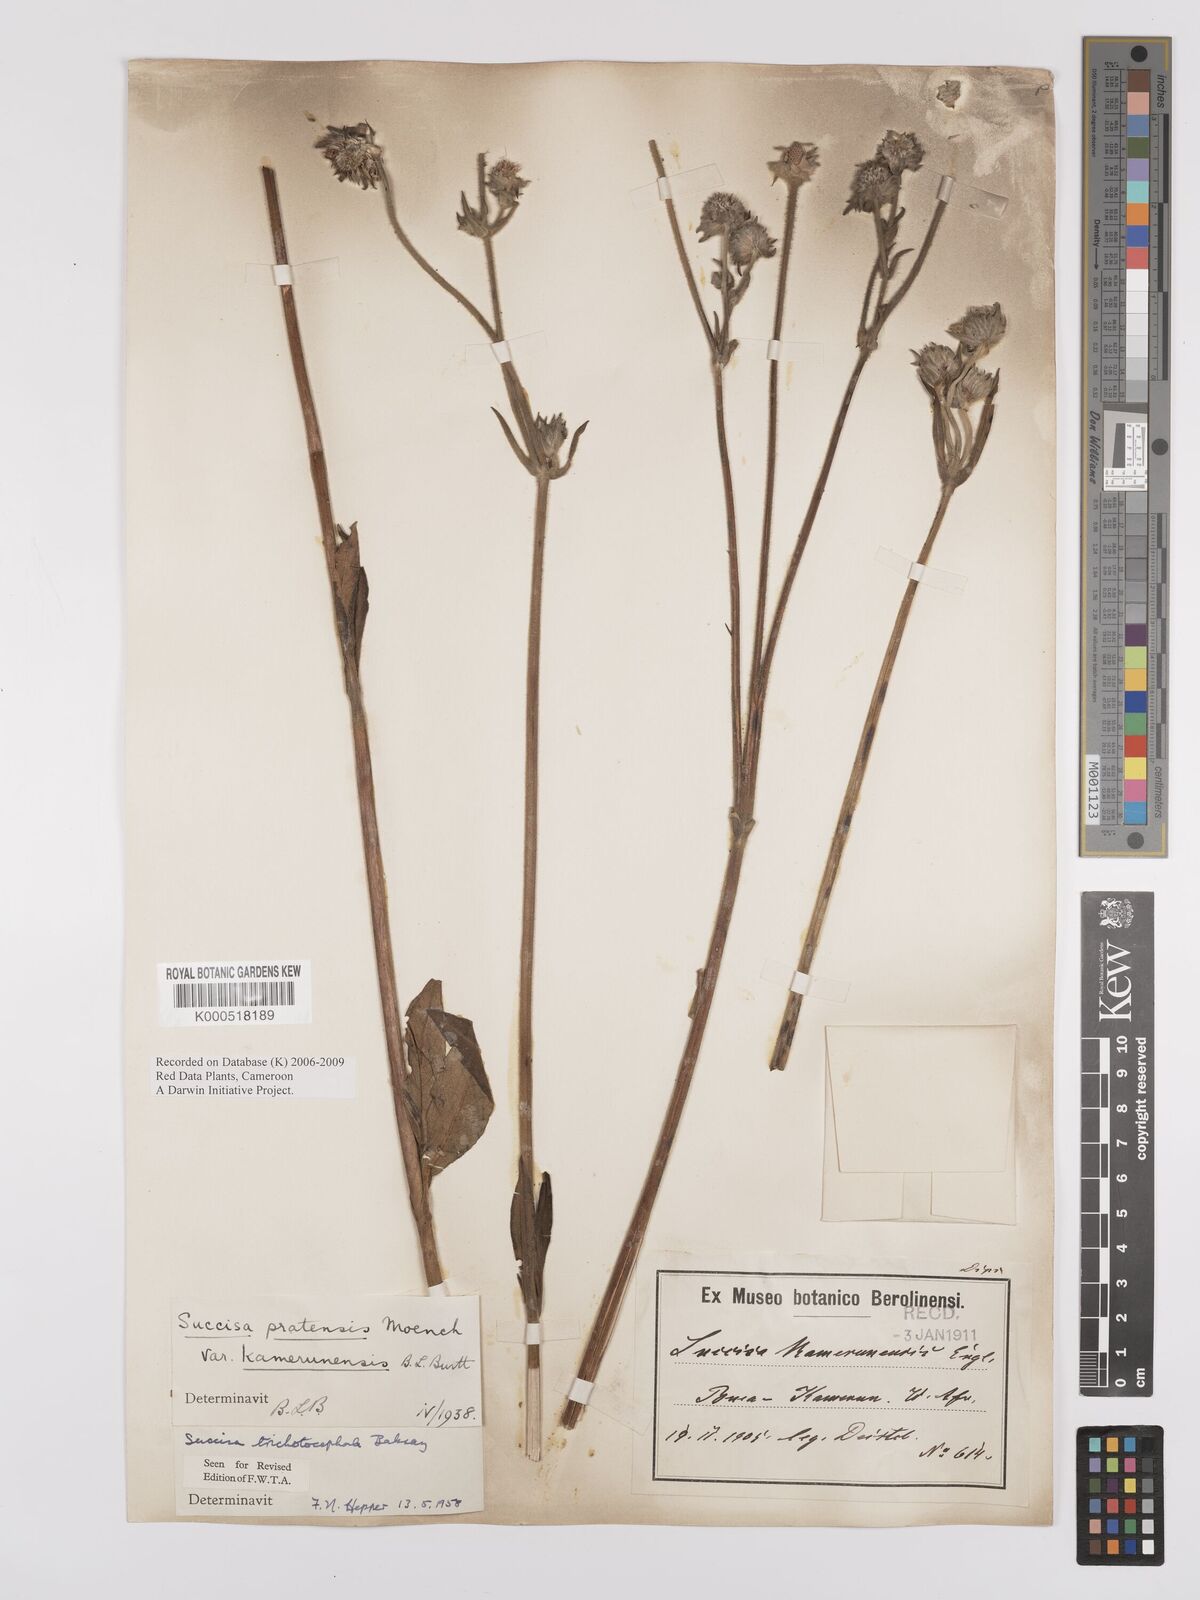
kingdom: Plantae
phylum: Tracheophyta
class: Magnoliopsida
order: Dipsacales
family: Caprifoliaceae
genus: Succisa
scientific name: Succisa trichotocephala
